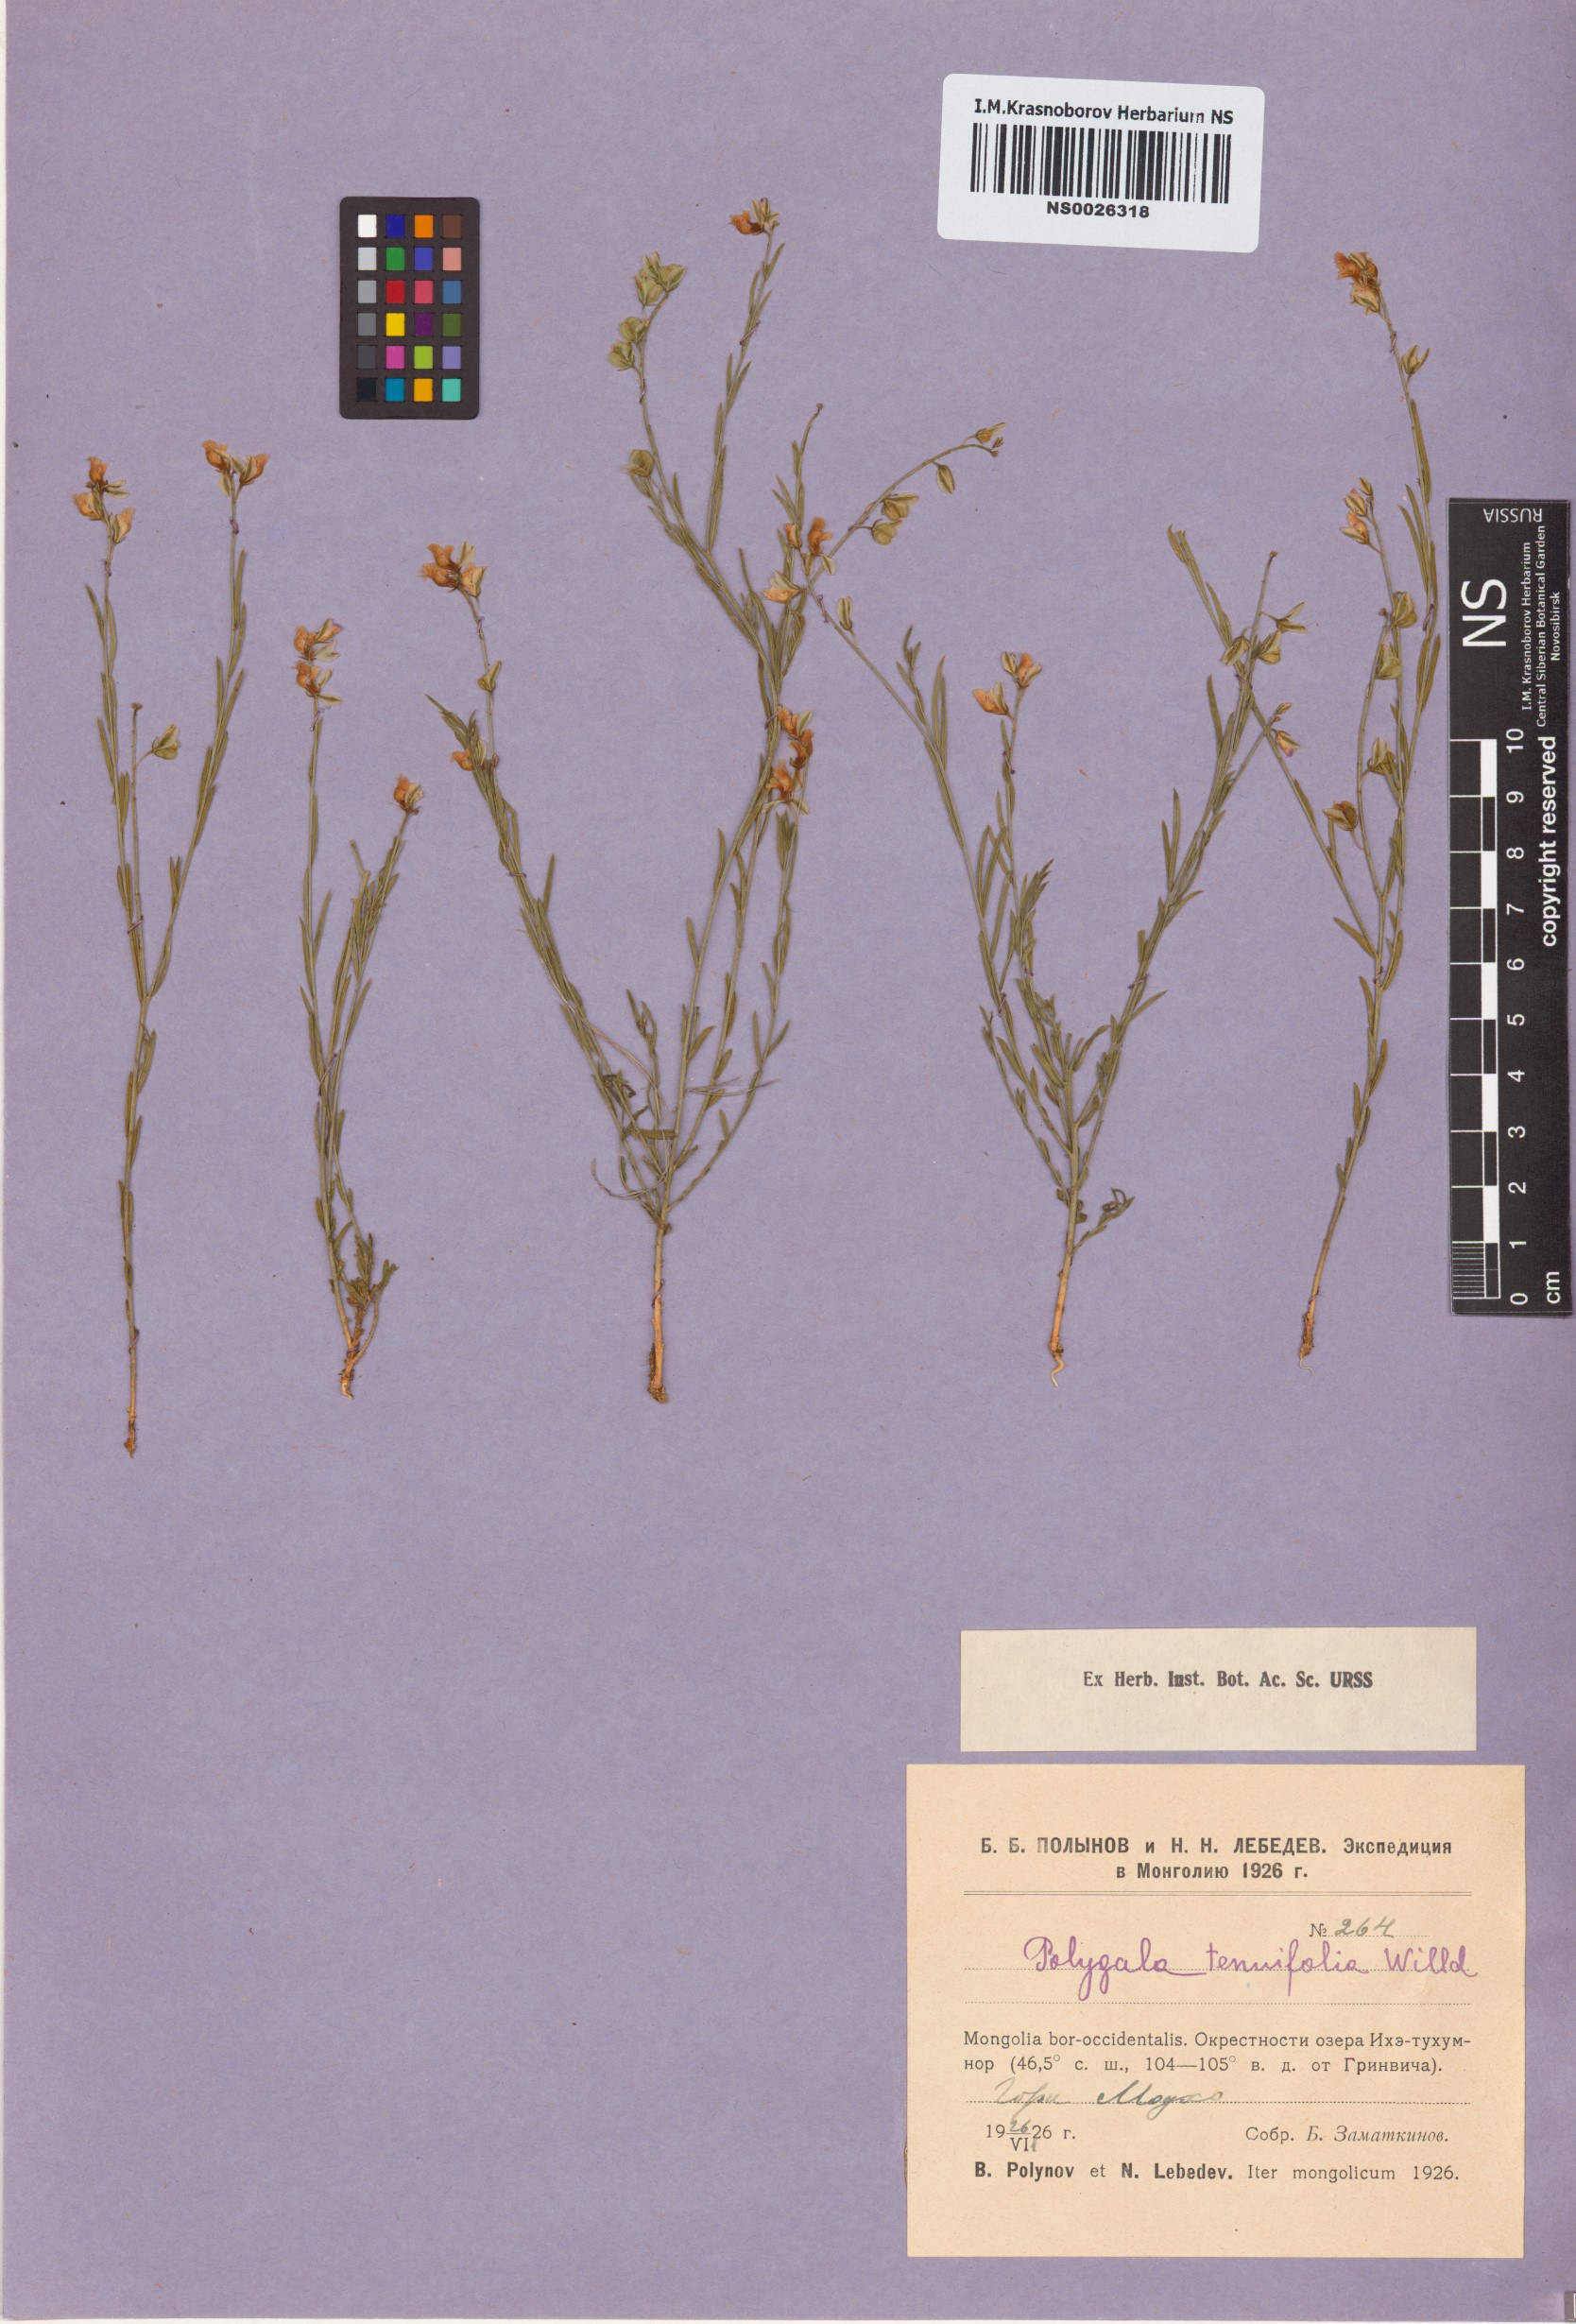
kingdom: Plantae
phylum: Tracheophyta
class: Magnoliopsida
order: Fabales
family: Polygalaceae
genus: Polygala
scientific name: Polygala tenuifolia
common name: Chinese senega-root
